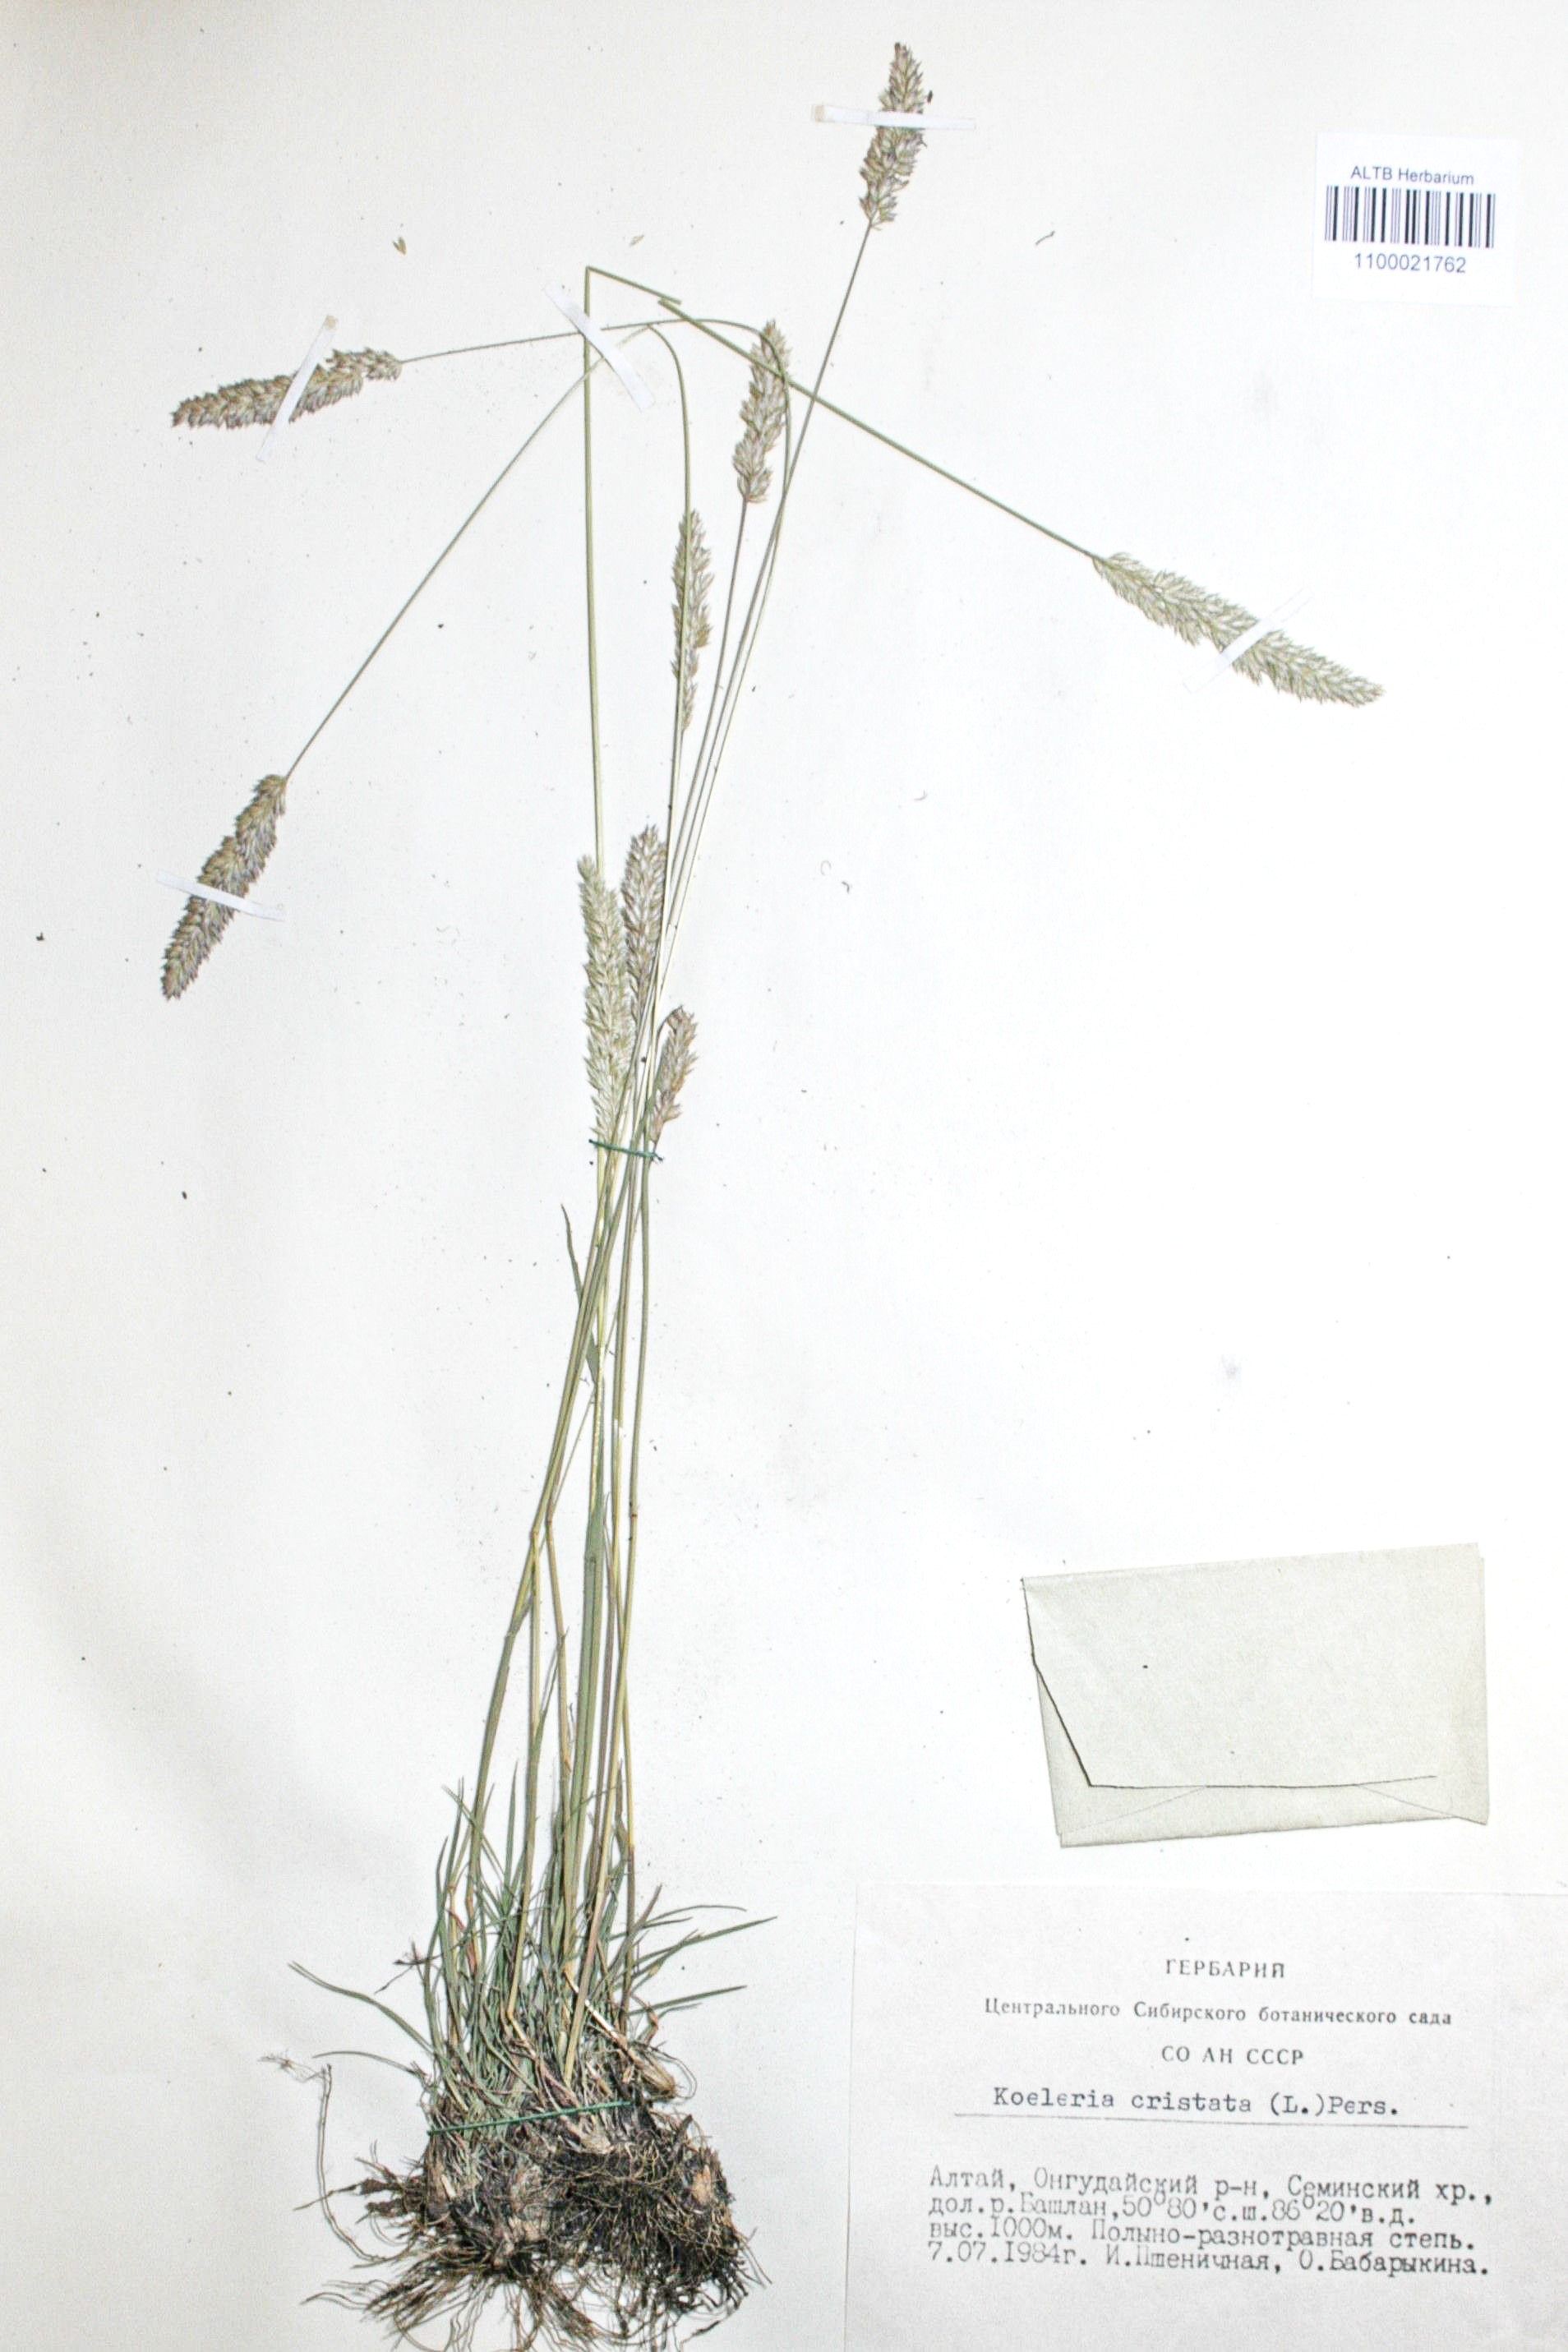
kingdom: Plantae
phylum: Tracheophyta
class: Liliopsida
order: Poales
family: Poaceae
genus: Koeleria
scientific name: Koeleria pyramidata
